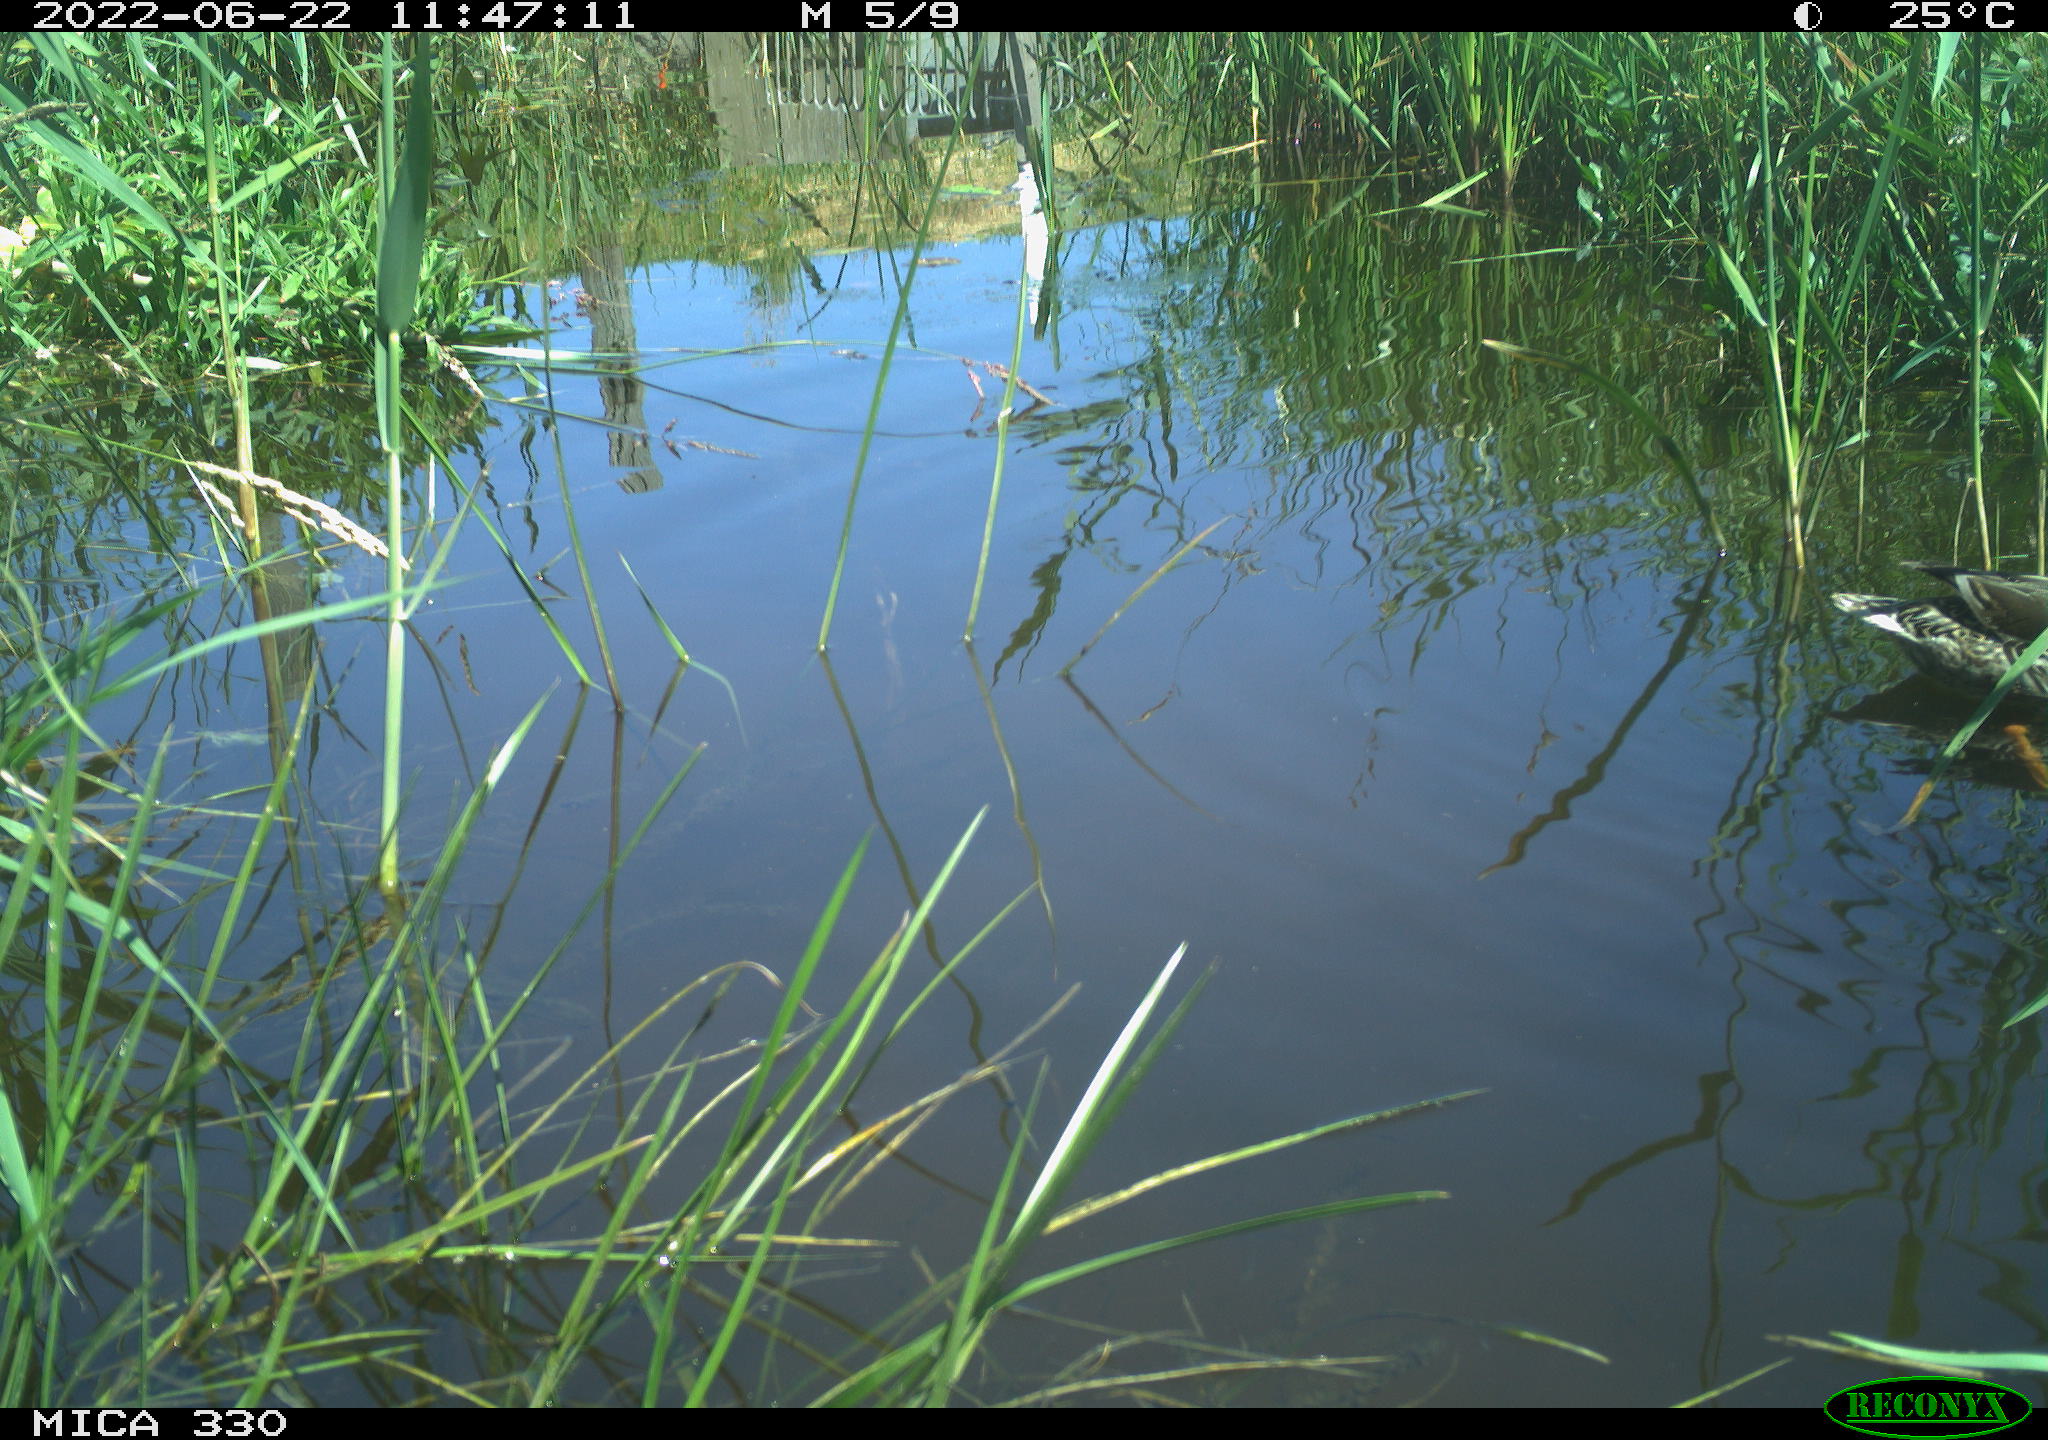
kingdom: Animalia
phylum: Chordata
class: Aves
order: Anseriformes
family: Anatidae
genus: Anas
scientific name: Anas platyrhynchos
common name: Mallard
